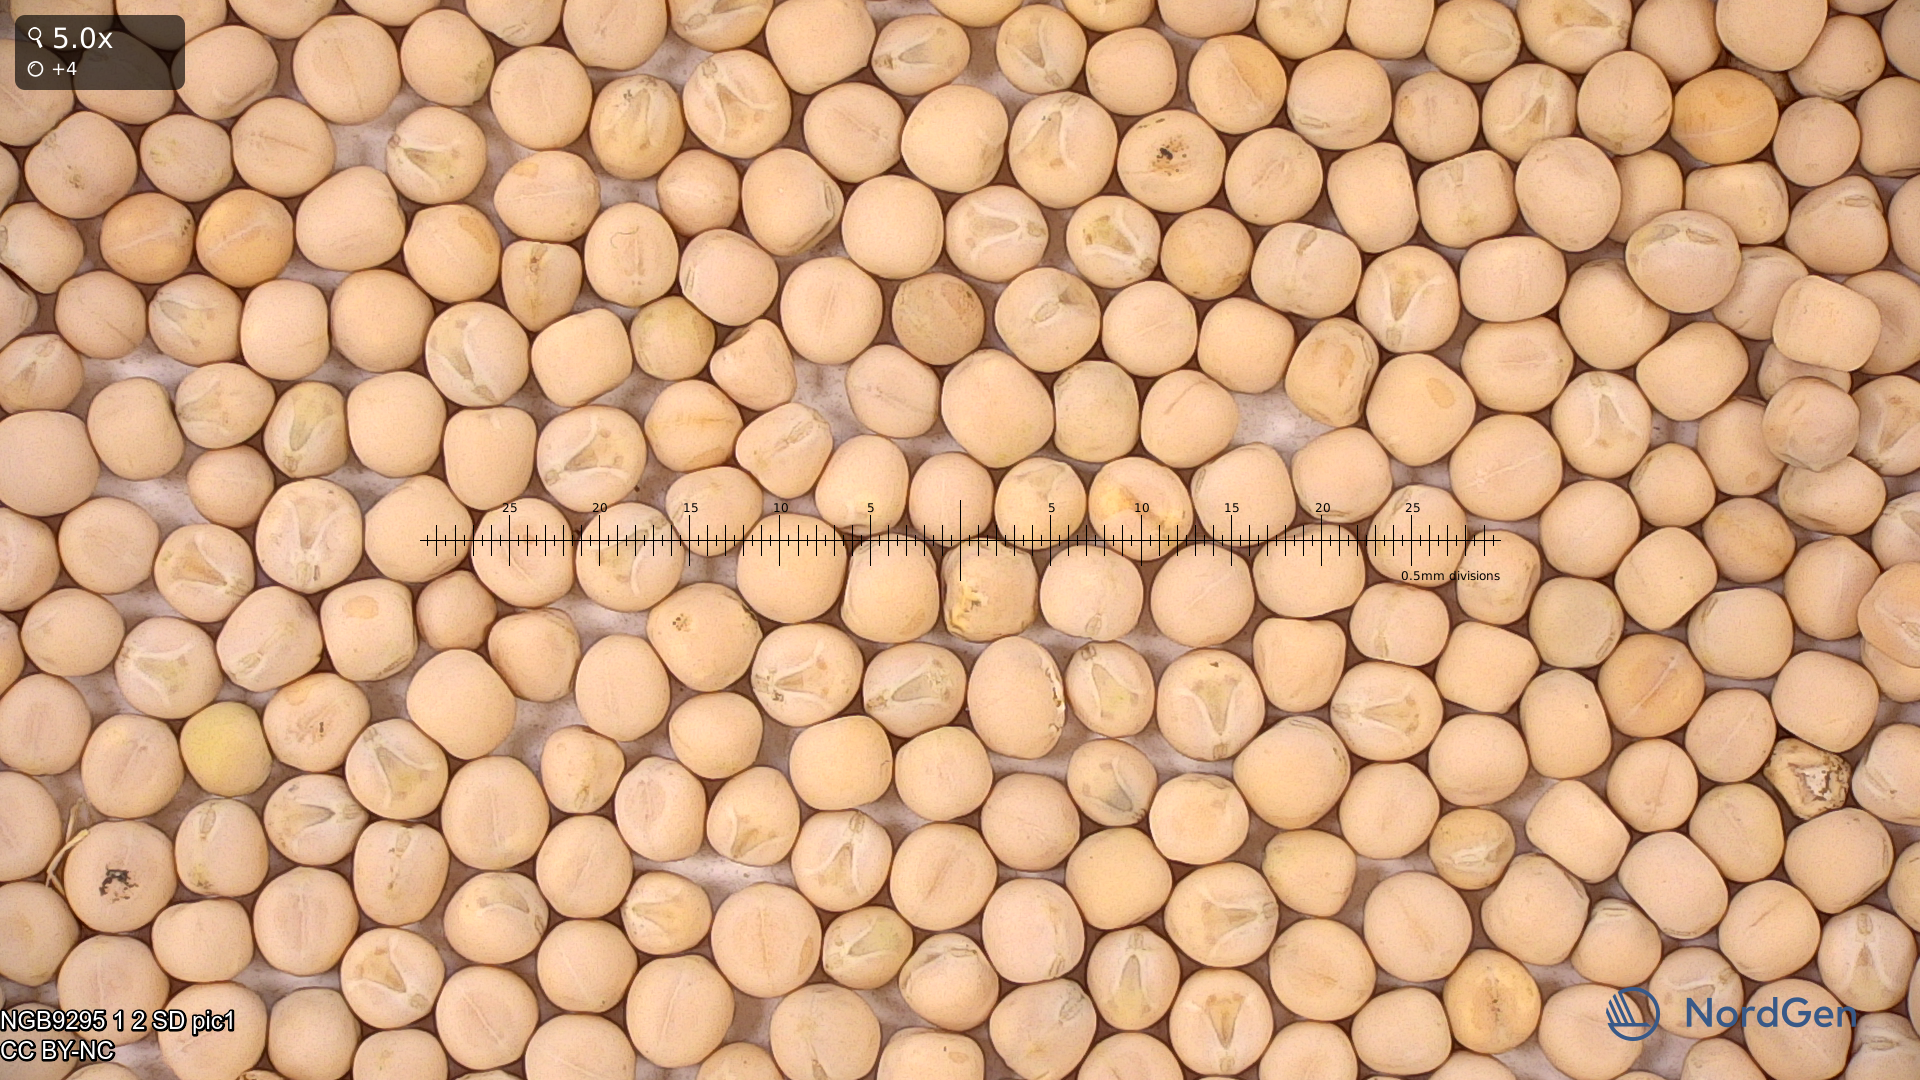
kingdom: Plantae
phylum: Tracheophyta
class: Magnoliopsida
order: Fabales
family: Fabaceae
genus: Lathyrus
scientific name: Lathyrus oleraceus
